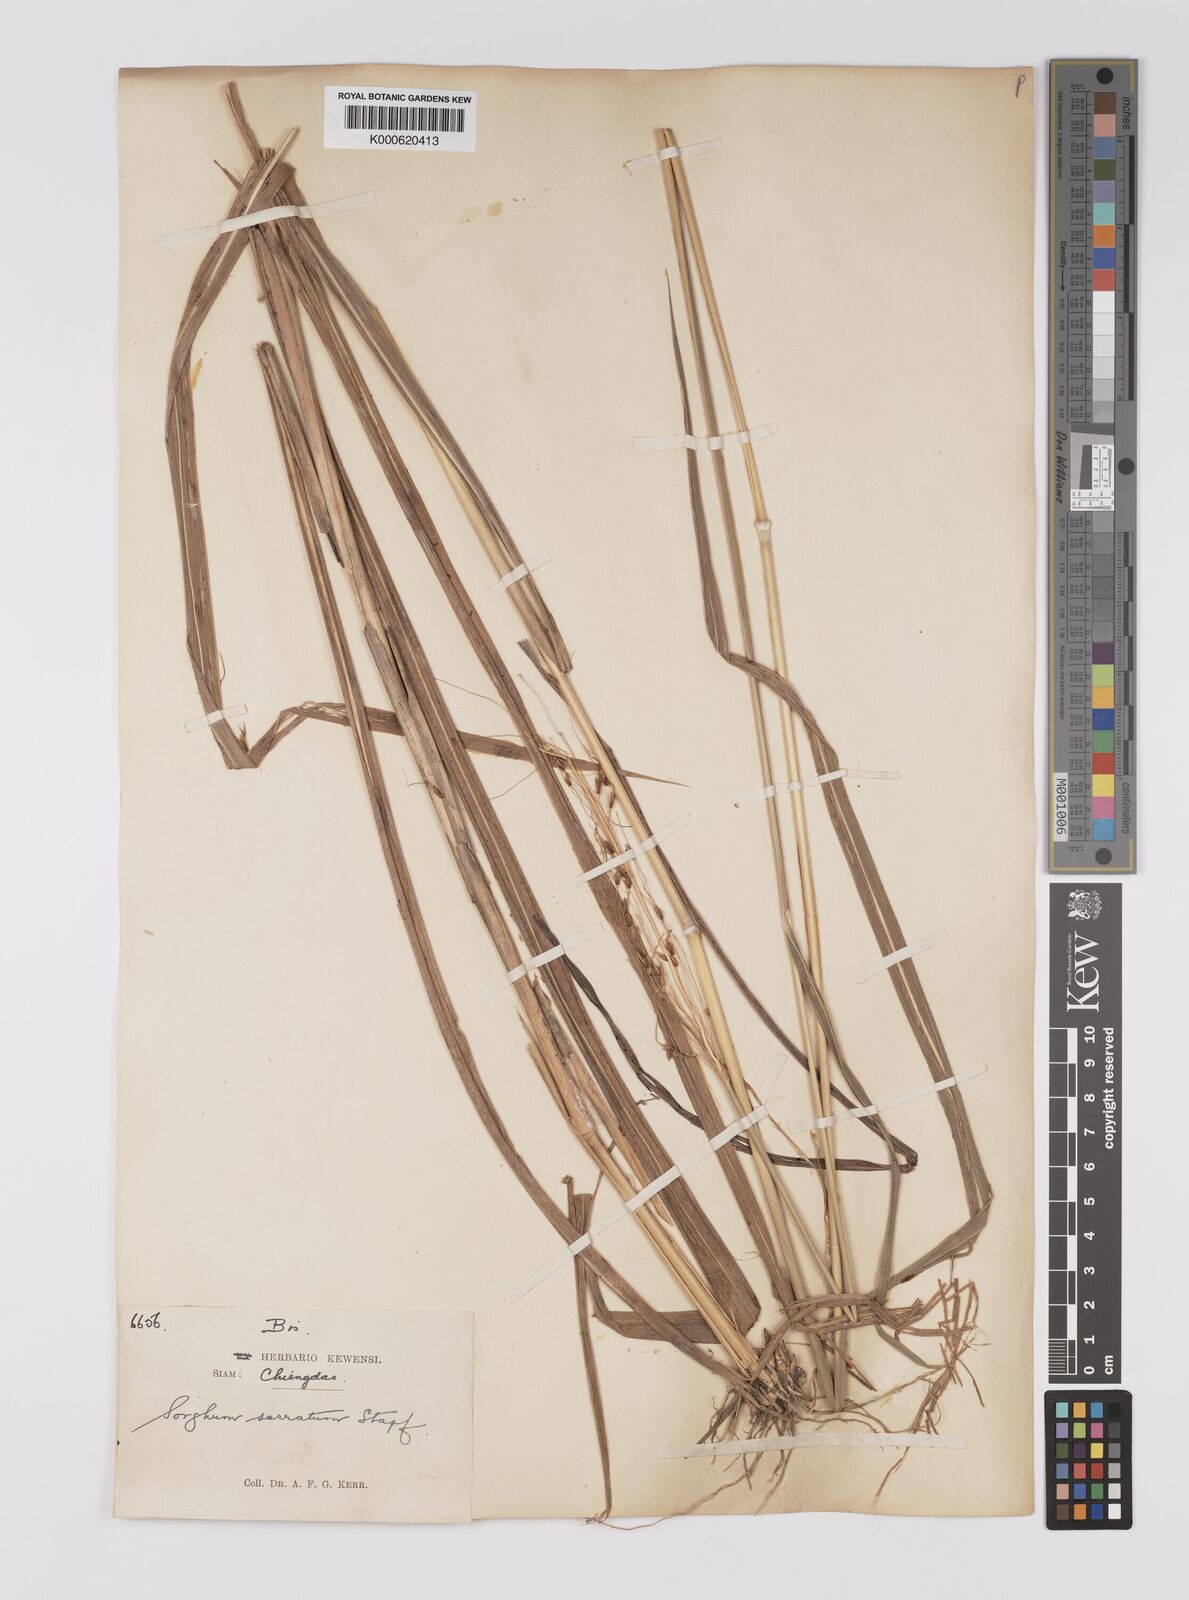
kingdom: Plantae
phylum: Tracheophyta
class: Liliopsida
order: Poales
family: Poaceae
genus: Sorghum
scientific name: Sorghum nitidum
